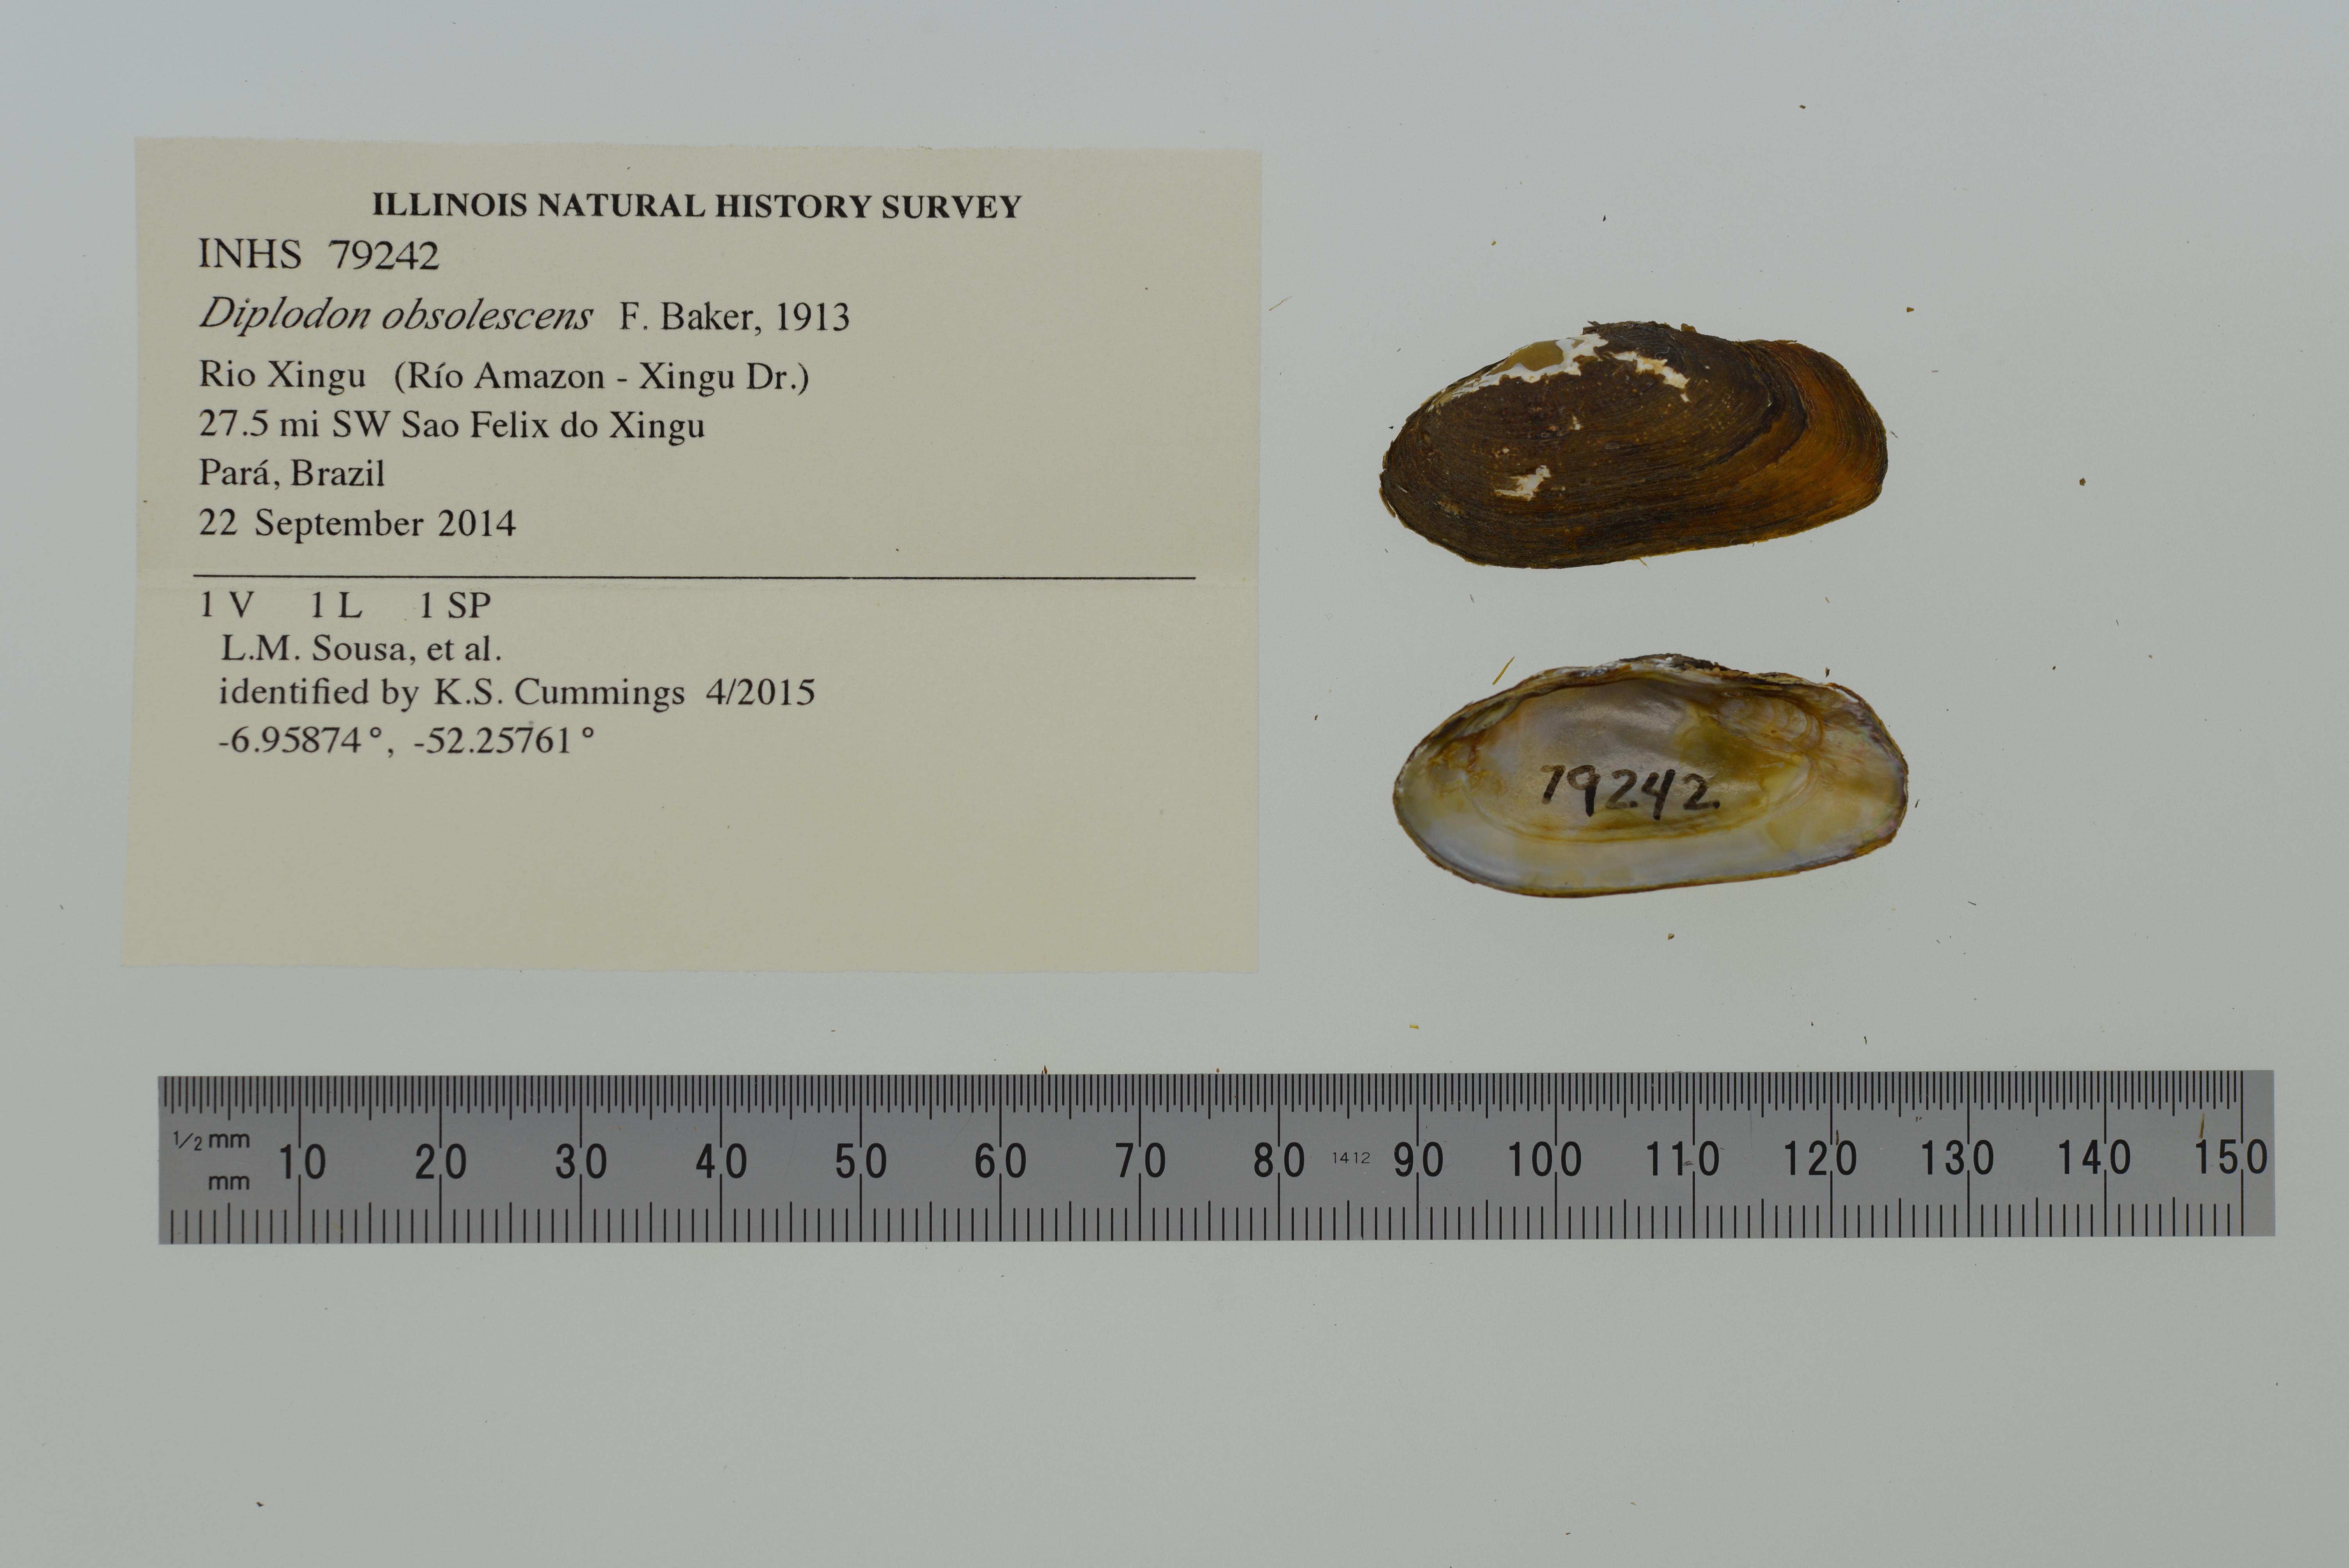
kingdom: Animalia
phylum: Mollusca
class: Bivalvia
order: Unionida
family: Hyriidae
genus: Diplodon
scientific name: Diplodon obsolescens
